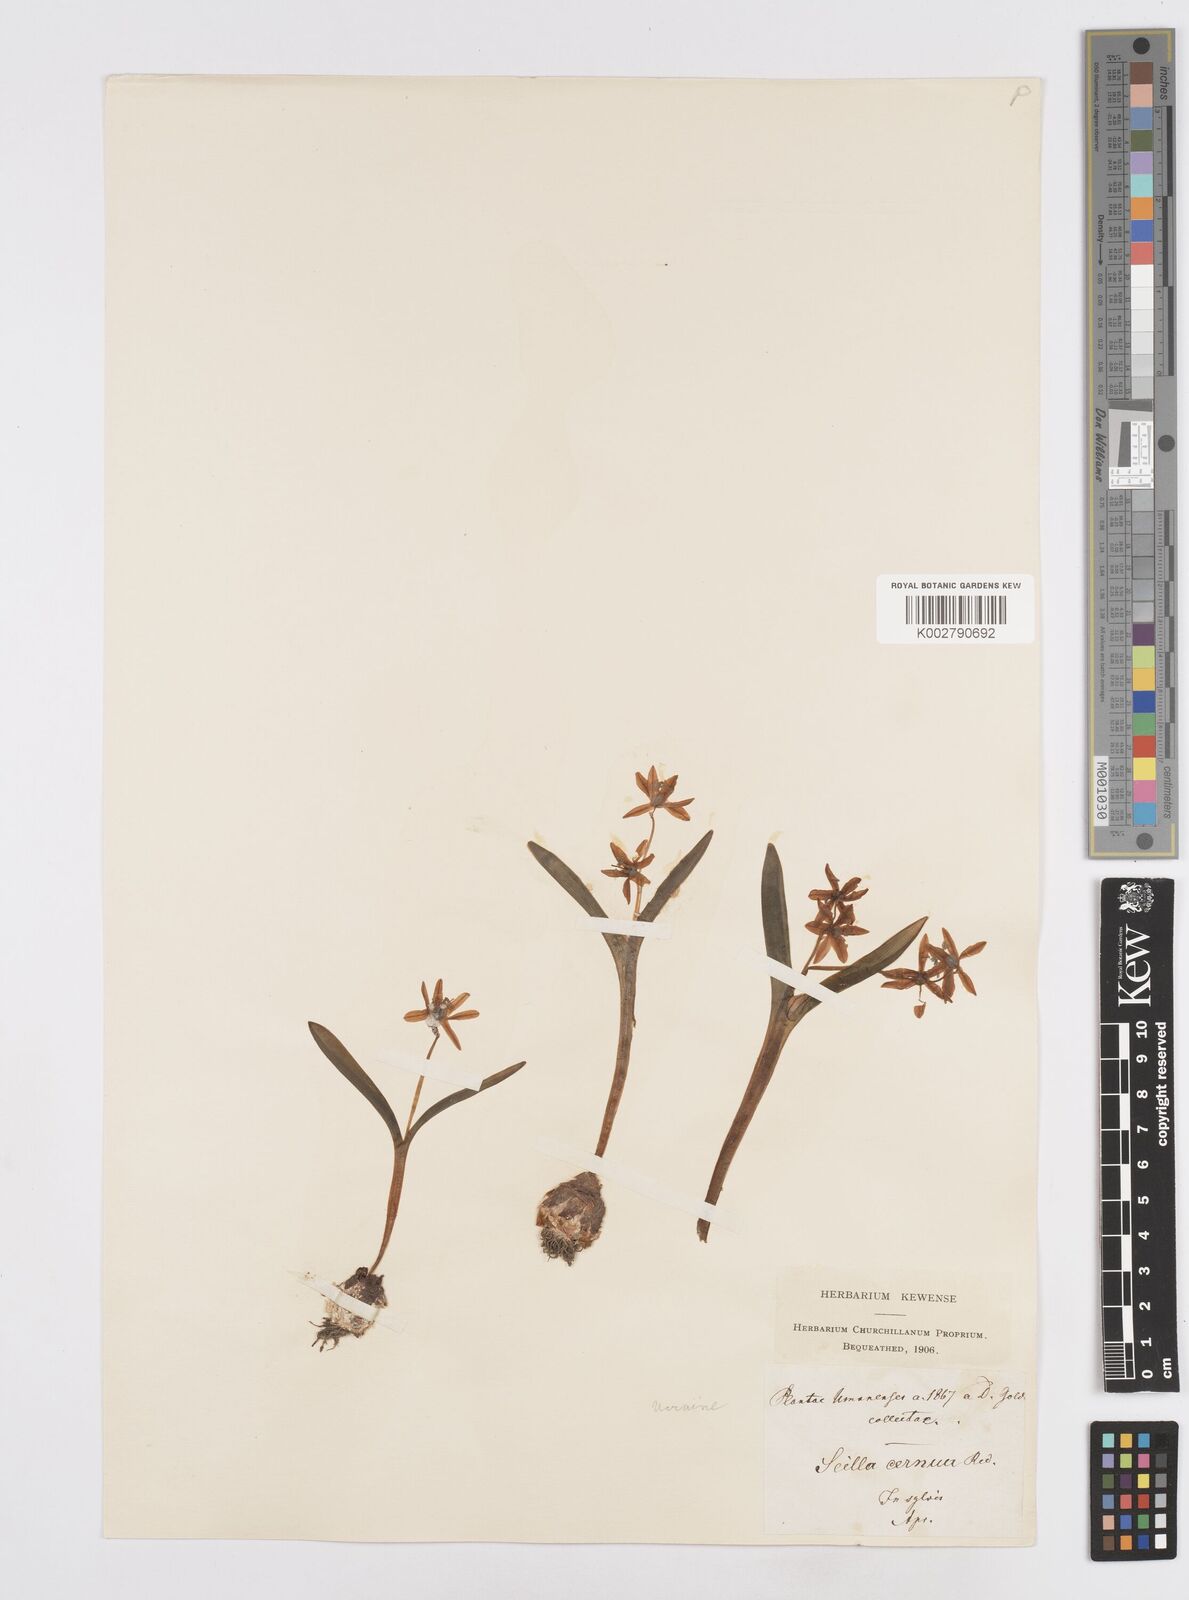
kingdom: Plantae
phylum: Tracheophyta
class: Liliopsida
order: Asparagales
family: Asparagaceae
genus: Scilla
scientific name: Scilla siberica
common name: Siberian squill
